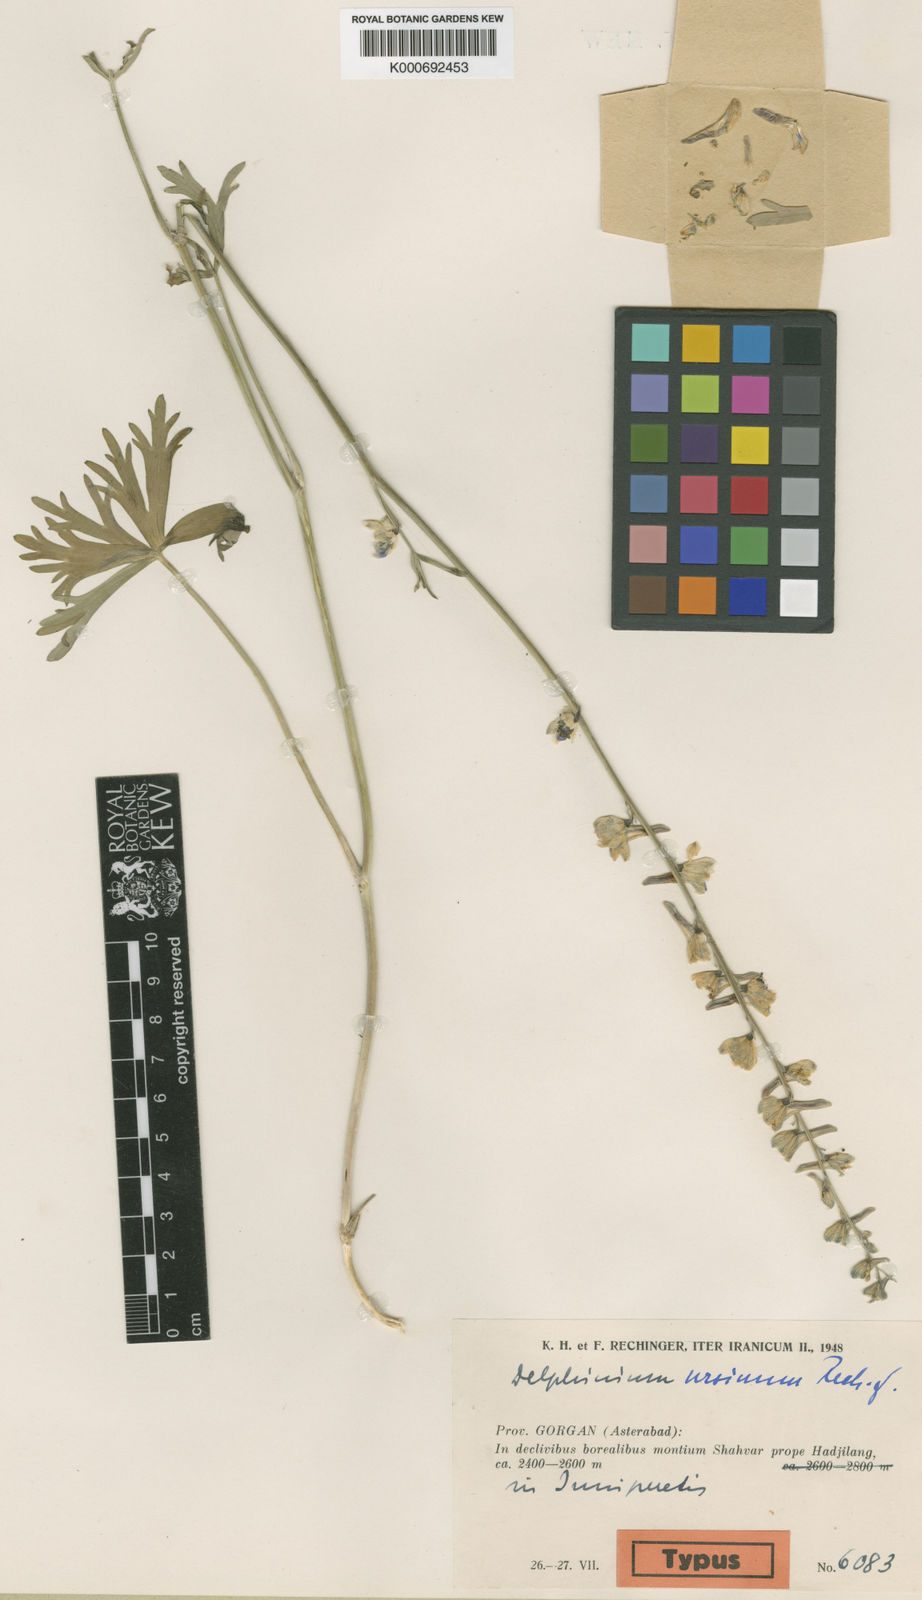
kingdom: Plantae
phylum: Tracheophyta
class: Magnoliopsida
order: Ranunculales
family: Ranunculaceae
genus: Delphinium
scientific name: Delphinium ursinum
